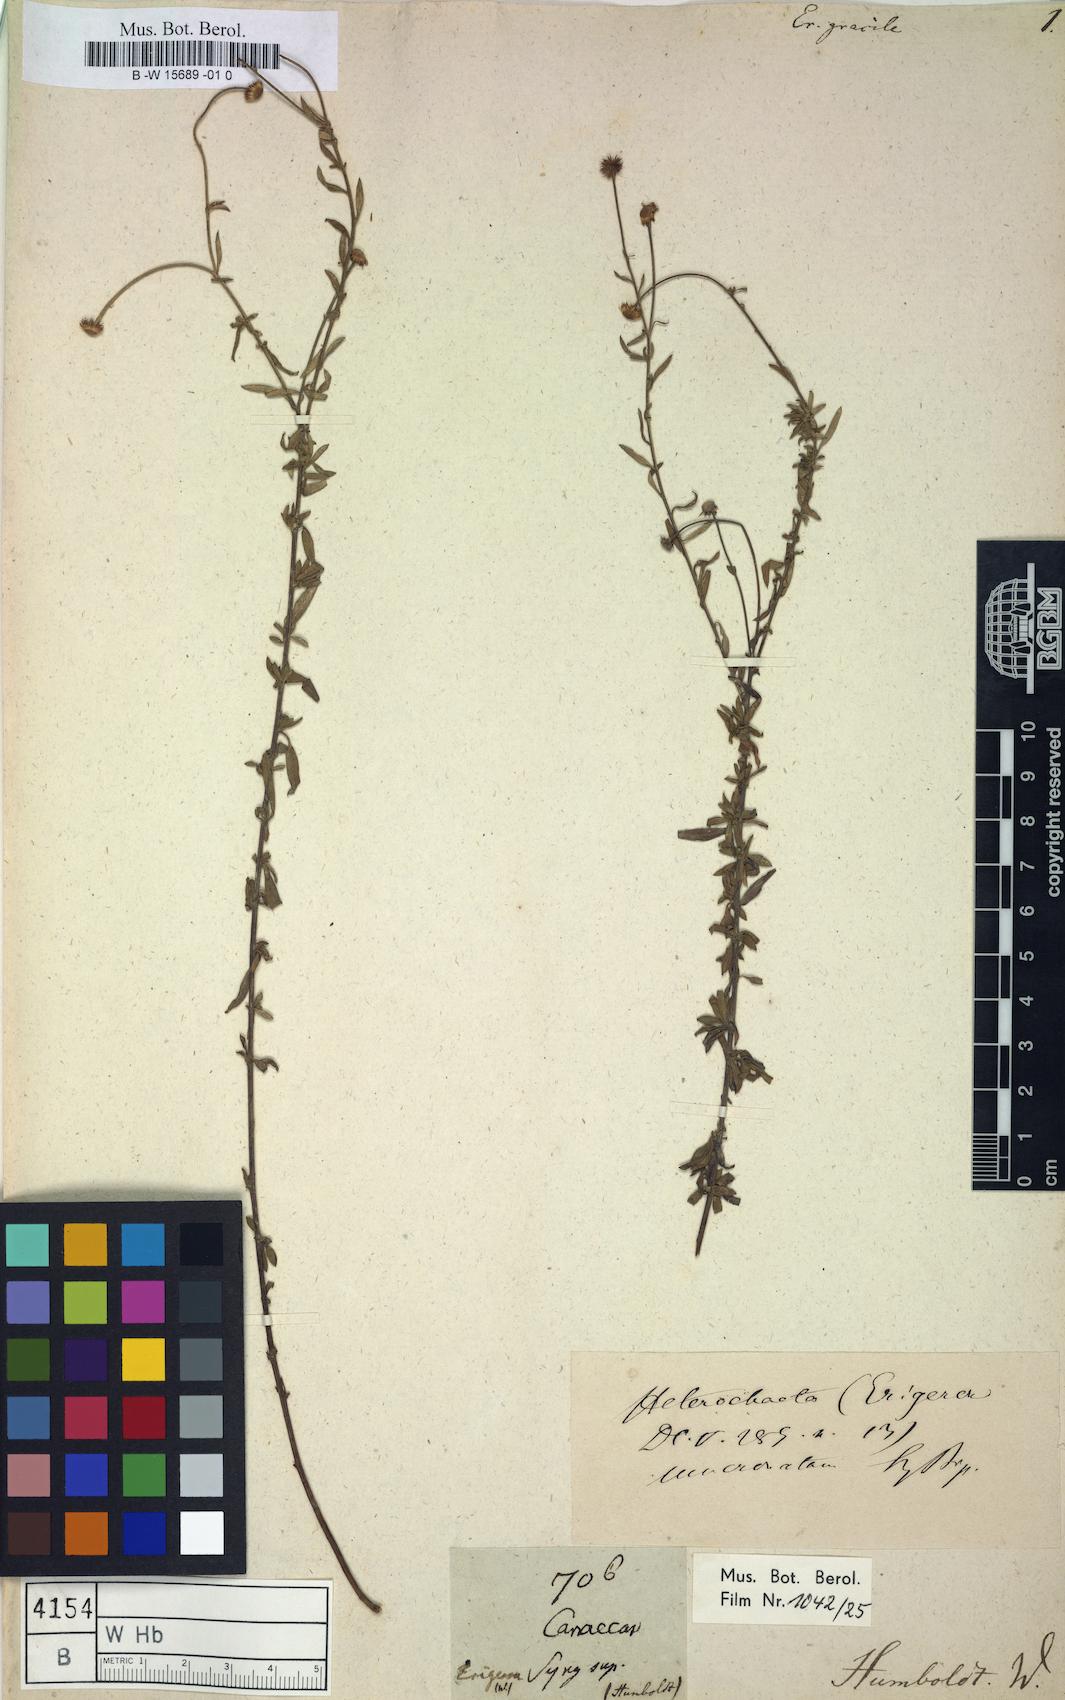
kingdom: Plantae
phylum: Tracheophyta
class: Magnoliopsida
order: Asterales
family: Asteraceae
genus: Erigeron
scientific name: Erigeron gracilis
